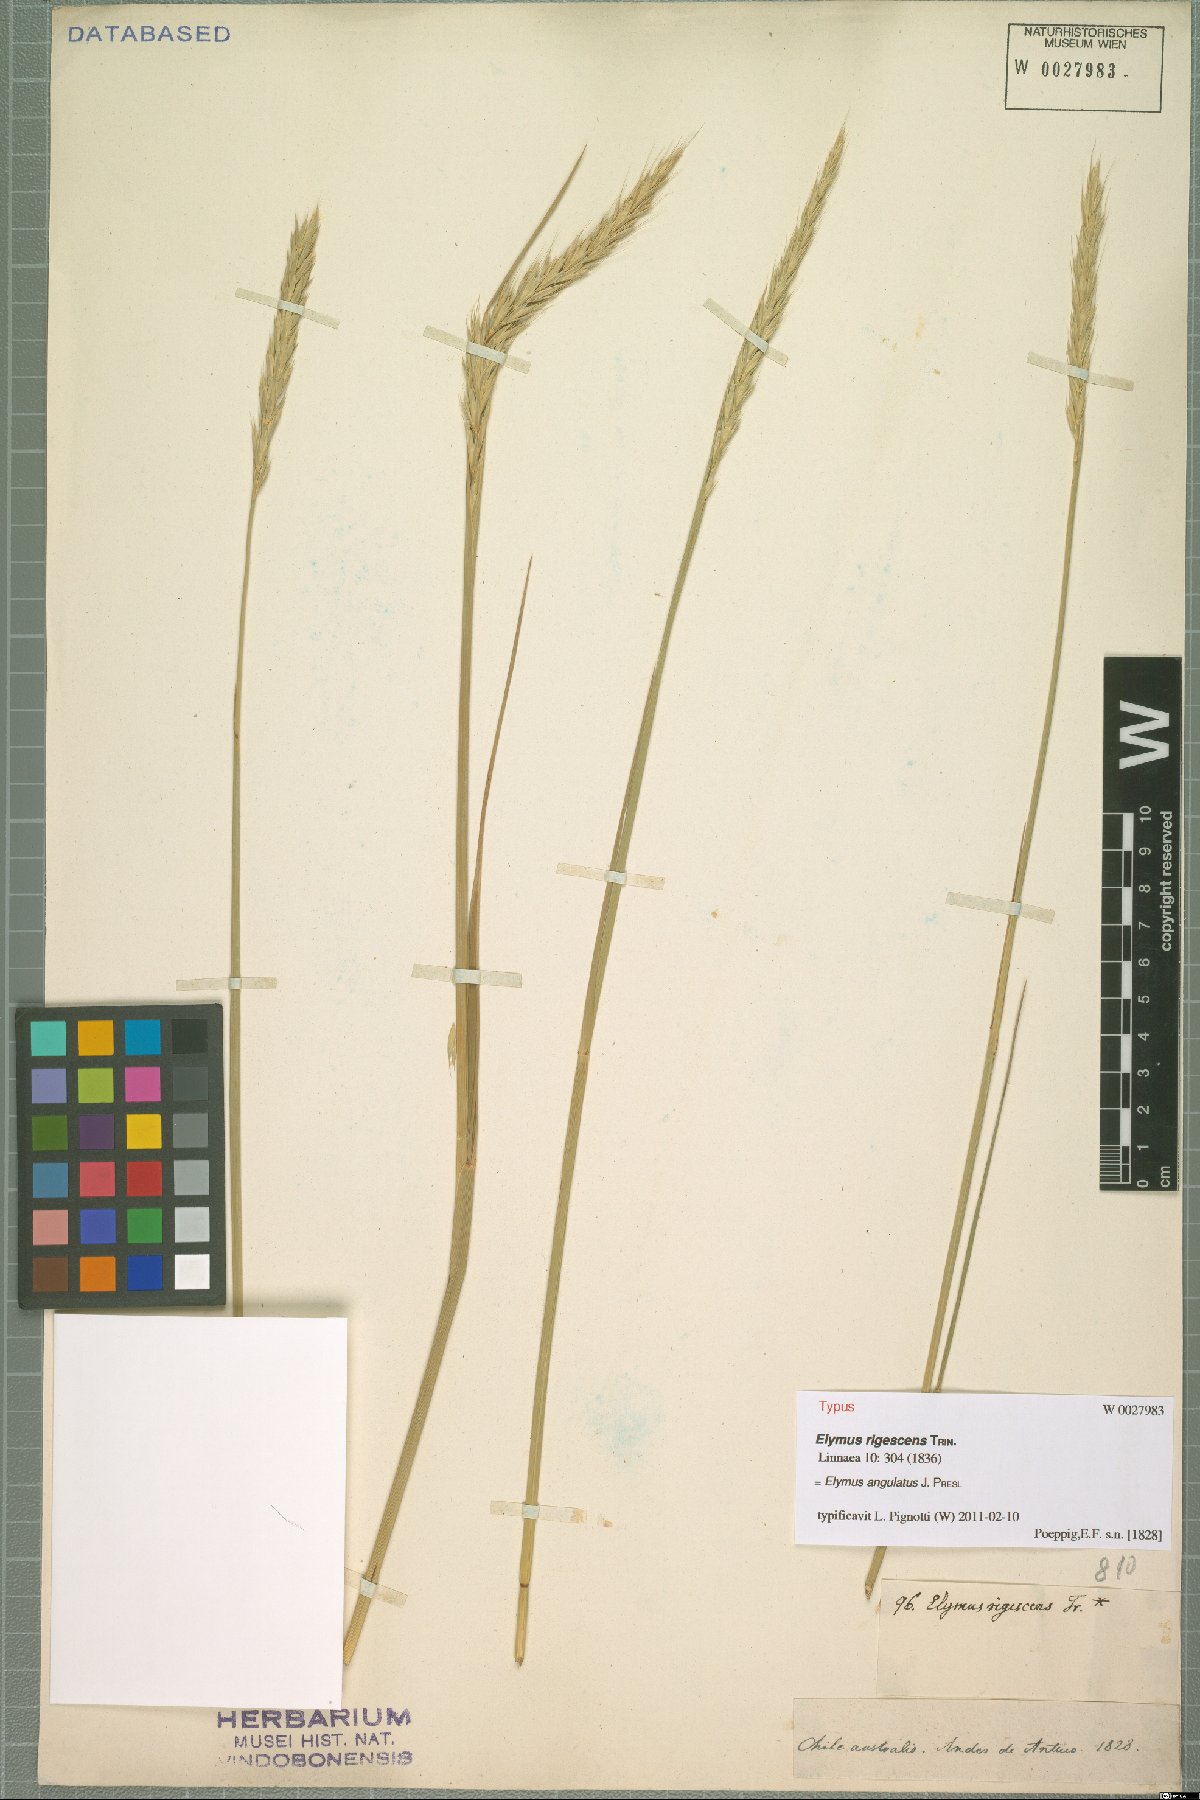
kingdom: Plantae
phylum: Tracheophyta
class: Liliopsida
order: Poales
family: Poaceae
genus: Elymus
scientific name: Elymus angulatus
